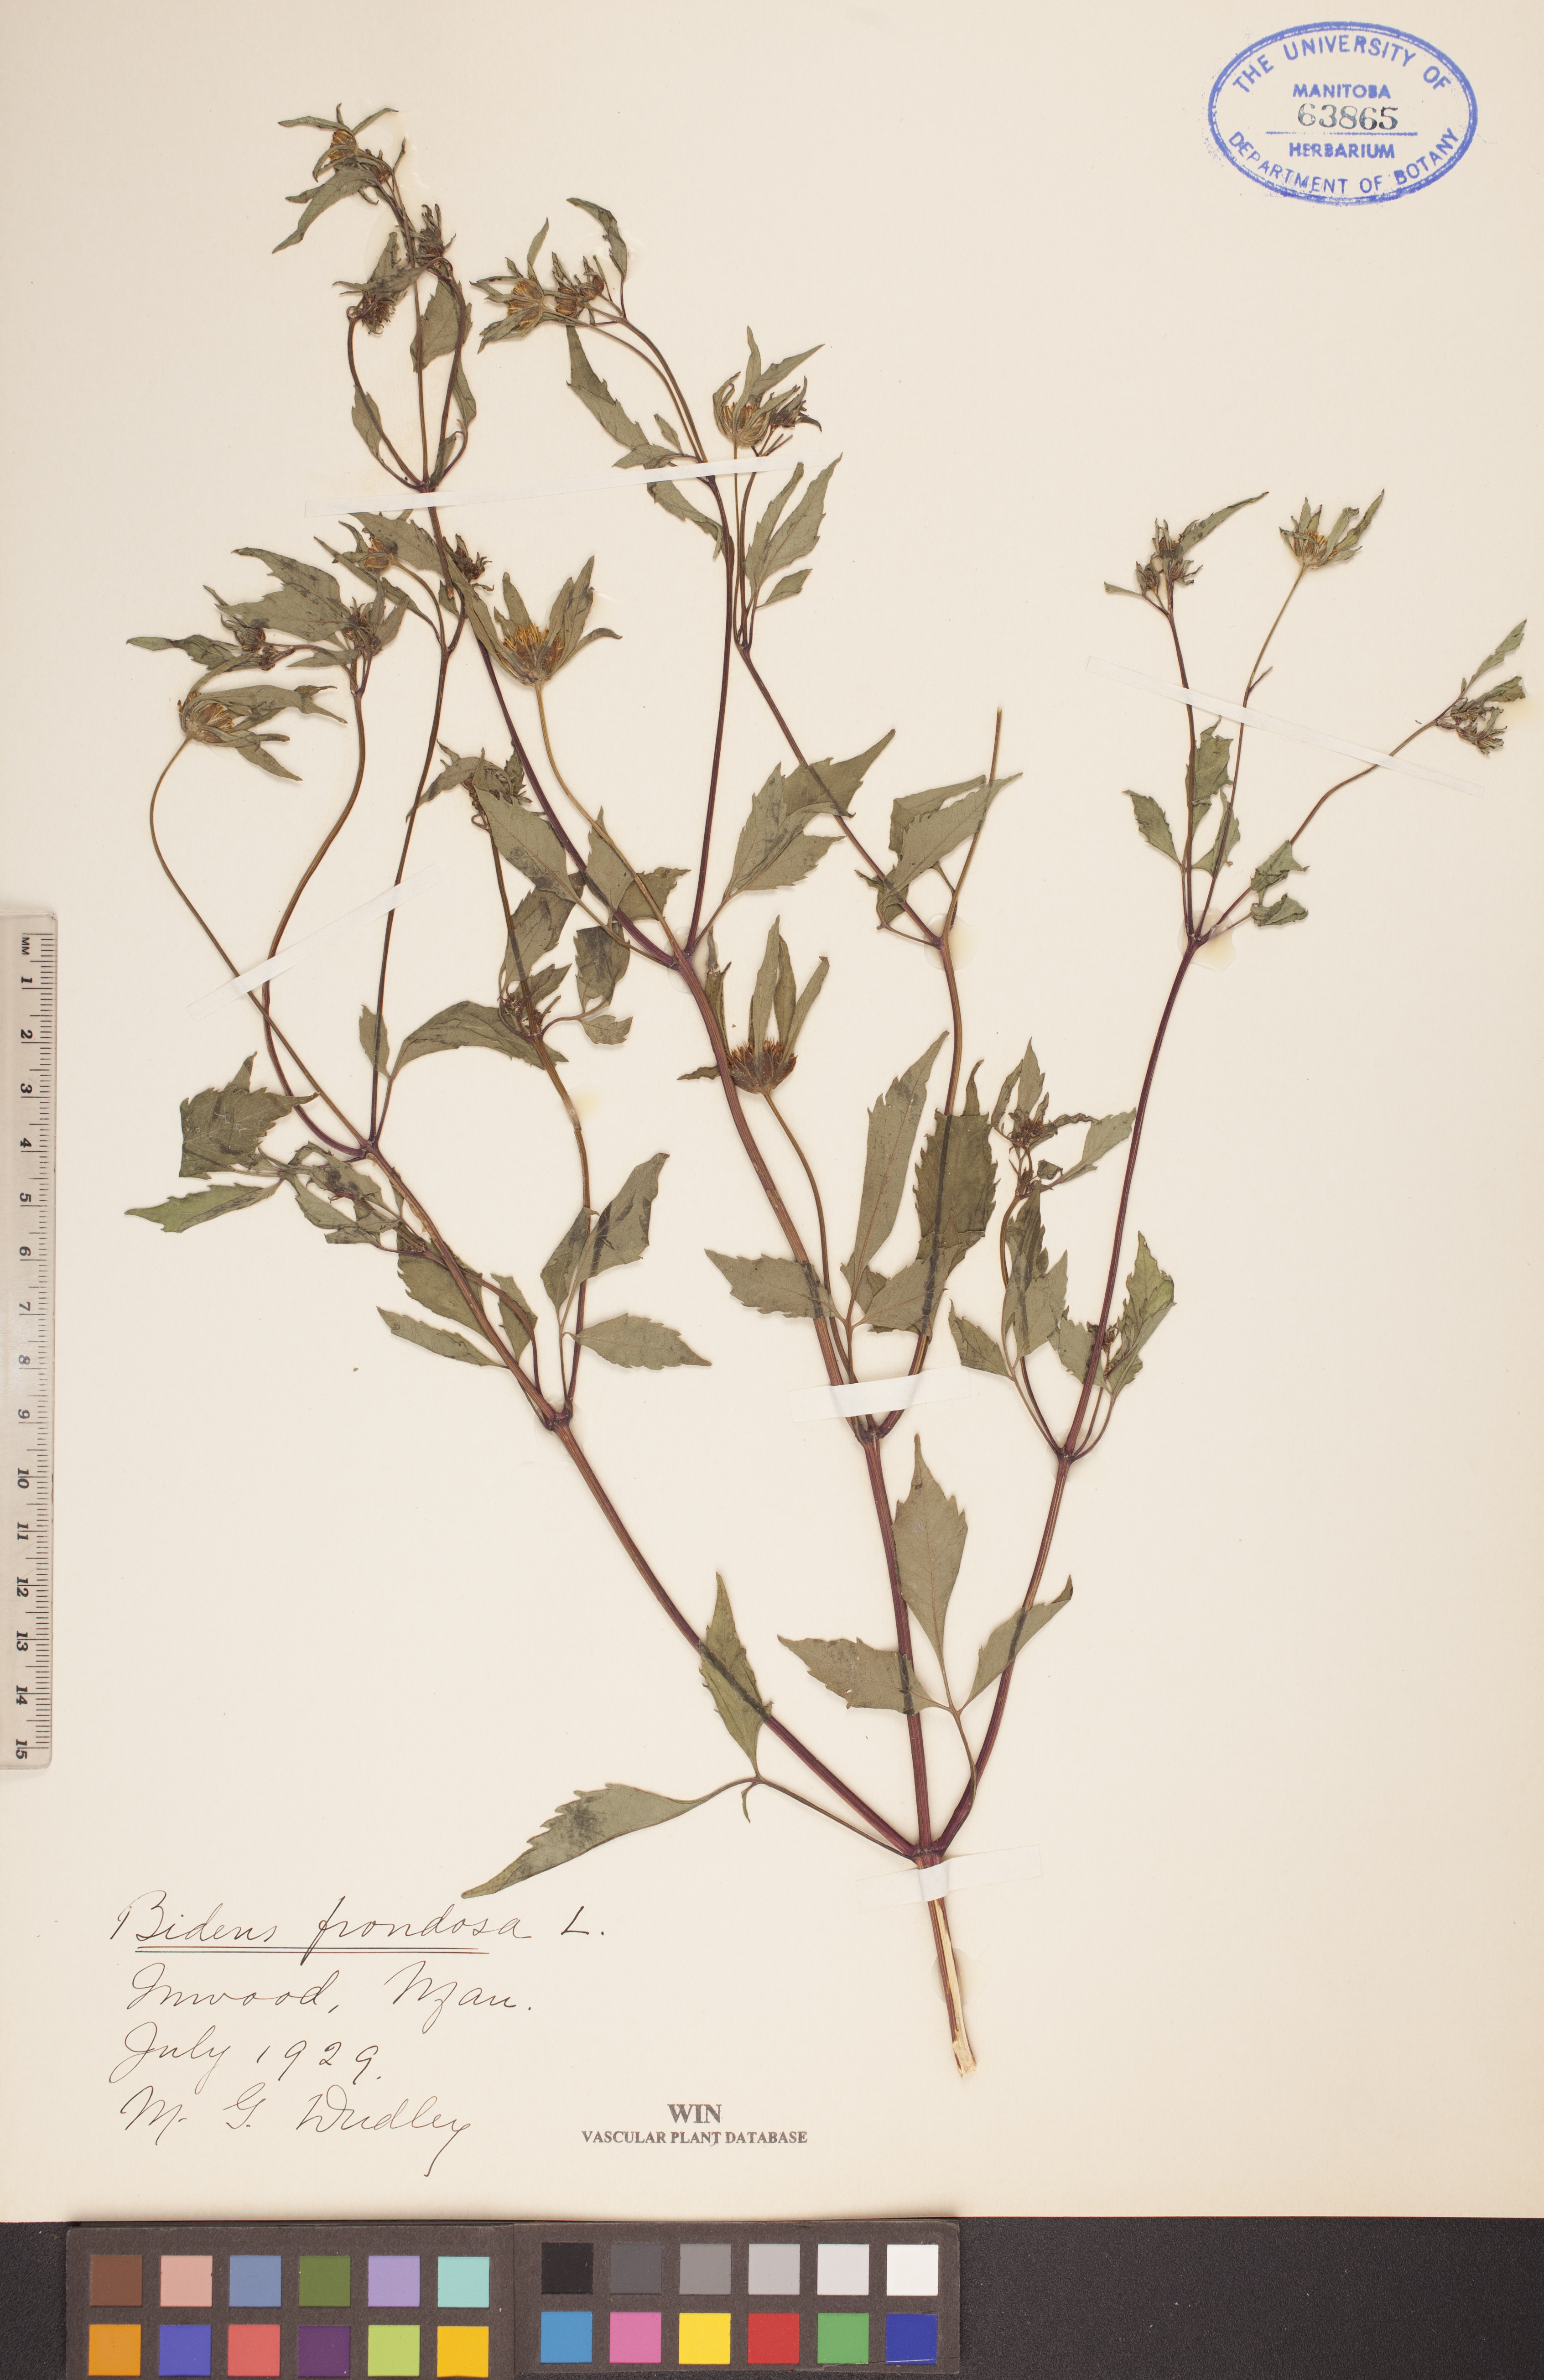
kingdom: Plantae
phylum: Tracheophyta
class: Magnoliopsida
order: Asterales
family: Asteraceae
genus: Bidens
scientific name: Bidens frondosa
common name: Beggarticks
